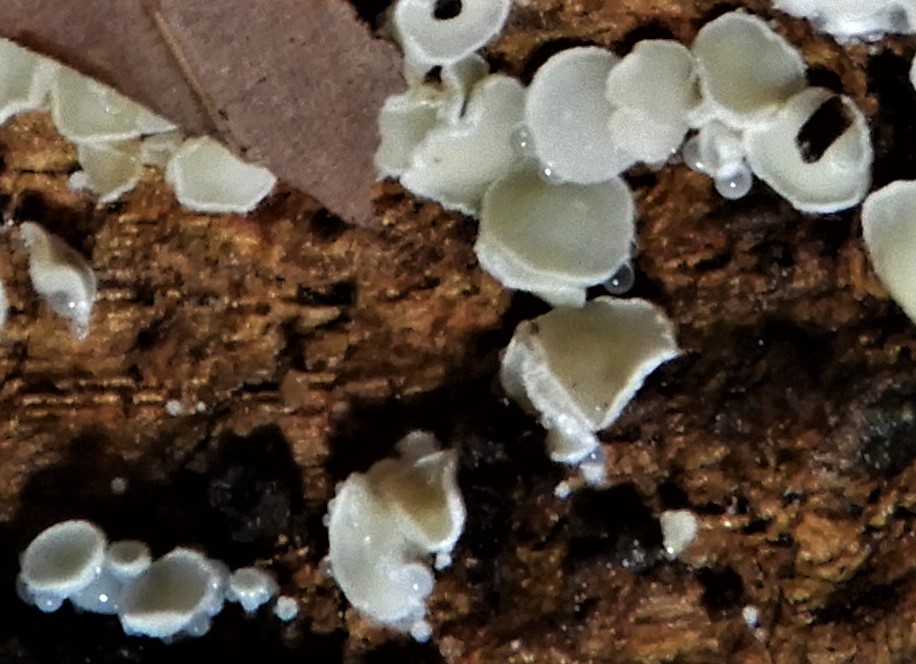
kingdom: Fungi
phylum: Ascomycota
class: Leotiomycetes
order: Helotiales
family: Lachnaceae
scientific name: Lachnaceae
